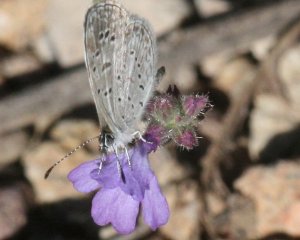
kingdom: Animalia
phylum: Arthropoda
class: Insecta
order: Lepidoptera
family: Lycaenidae
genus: Lycaena
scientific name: Lycaena cyna
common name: Cyna Blue
